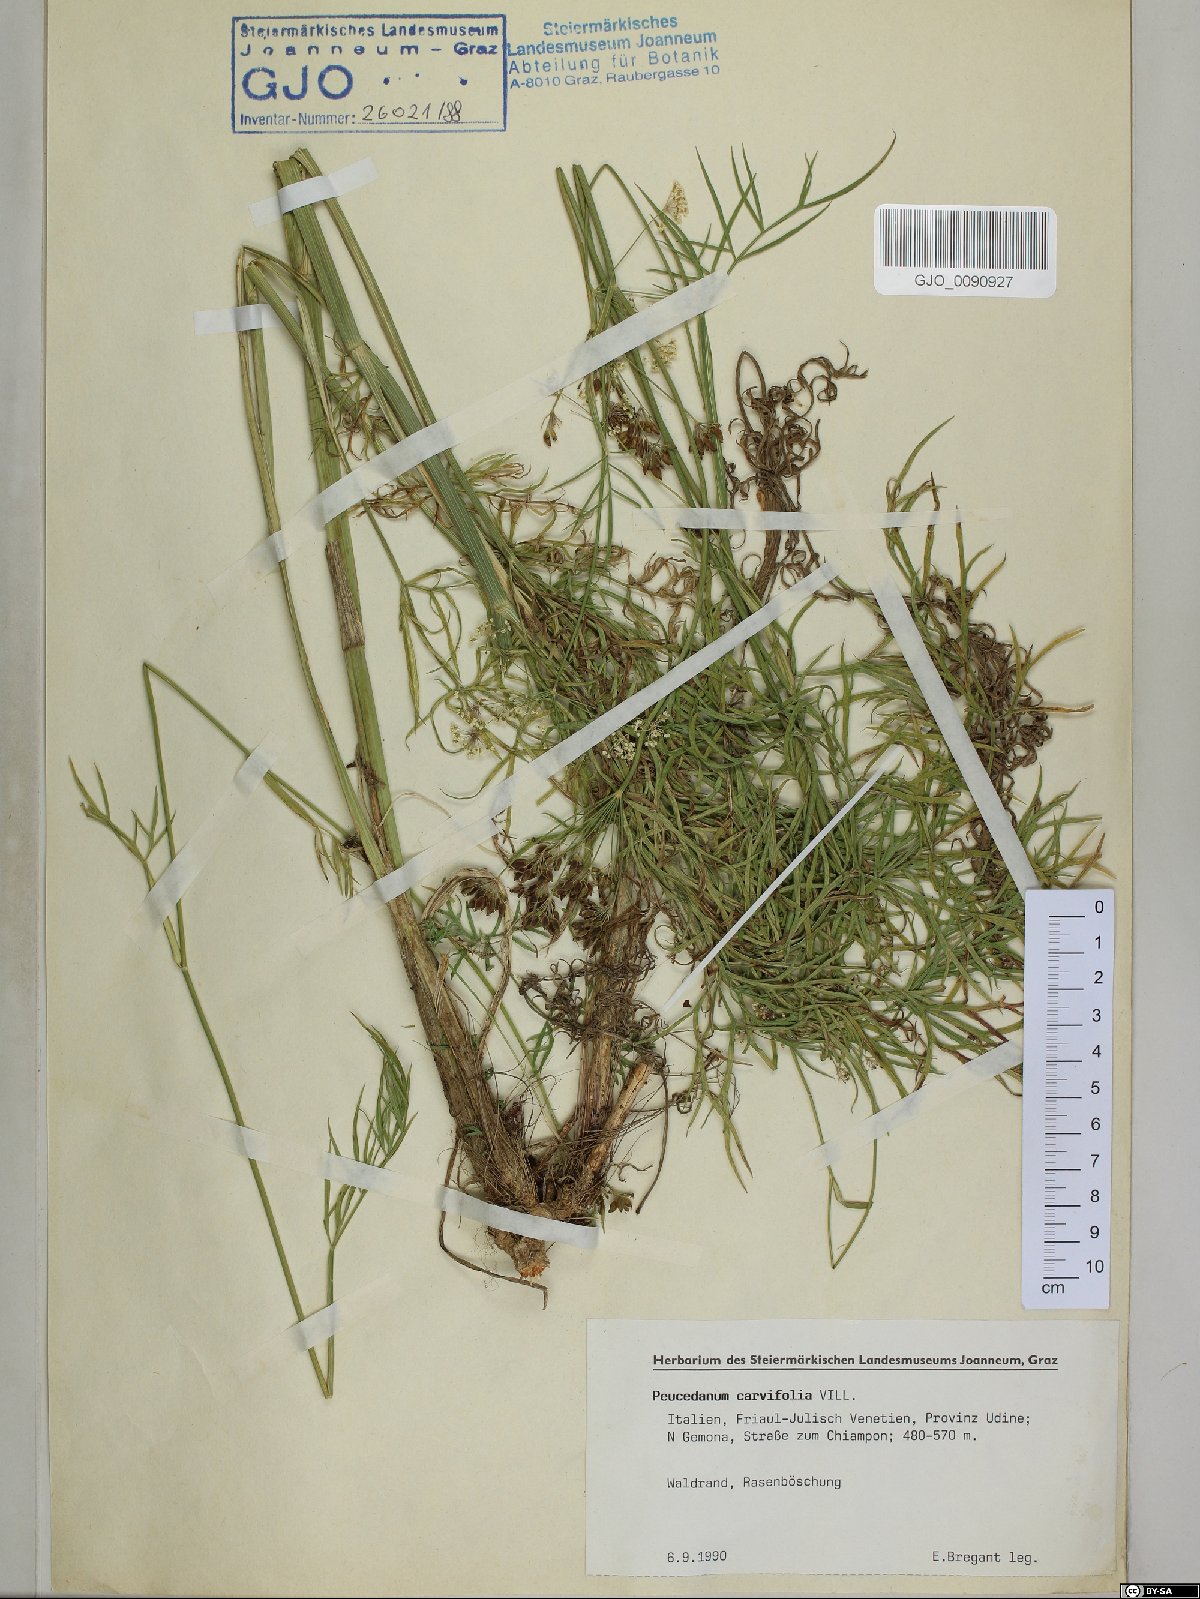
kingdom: Plantae
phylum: Tracheophyta
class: Magnoliopsida
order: Apiales
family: Apiaceae
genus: Dichoropetalum
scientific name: Dichoropetalum carvifolia
